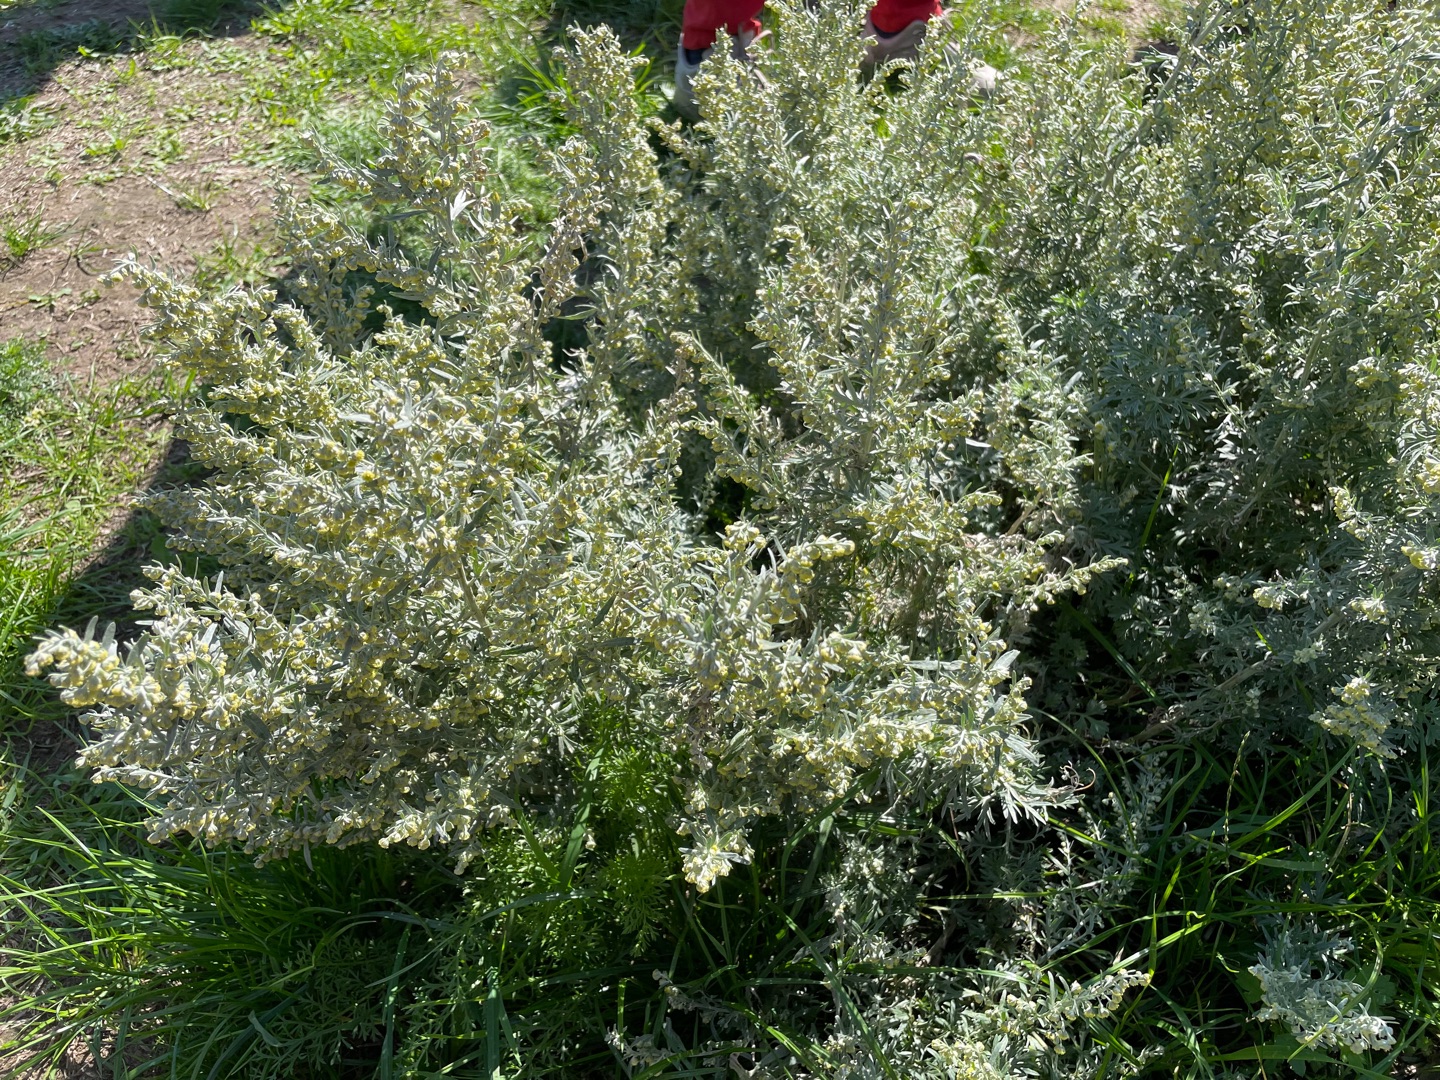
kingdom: Plantae
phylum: Tracheophyta
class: Magnoliopsida
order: Asterales
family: Asteraceae
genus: Artemisia
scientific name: Artemisia absinthium
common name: Havemalurt
